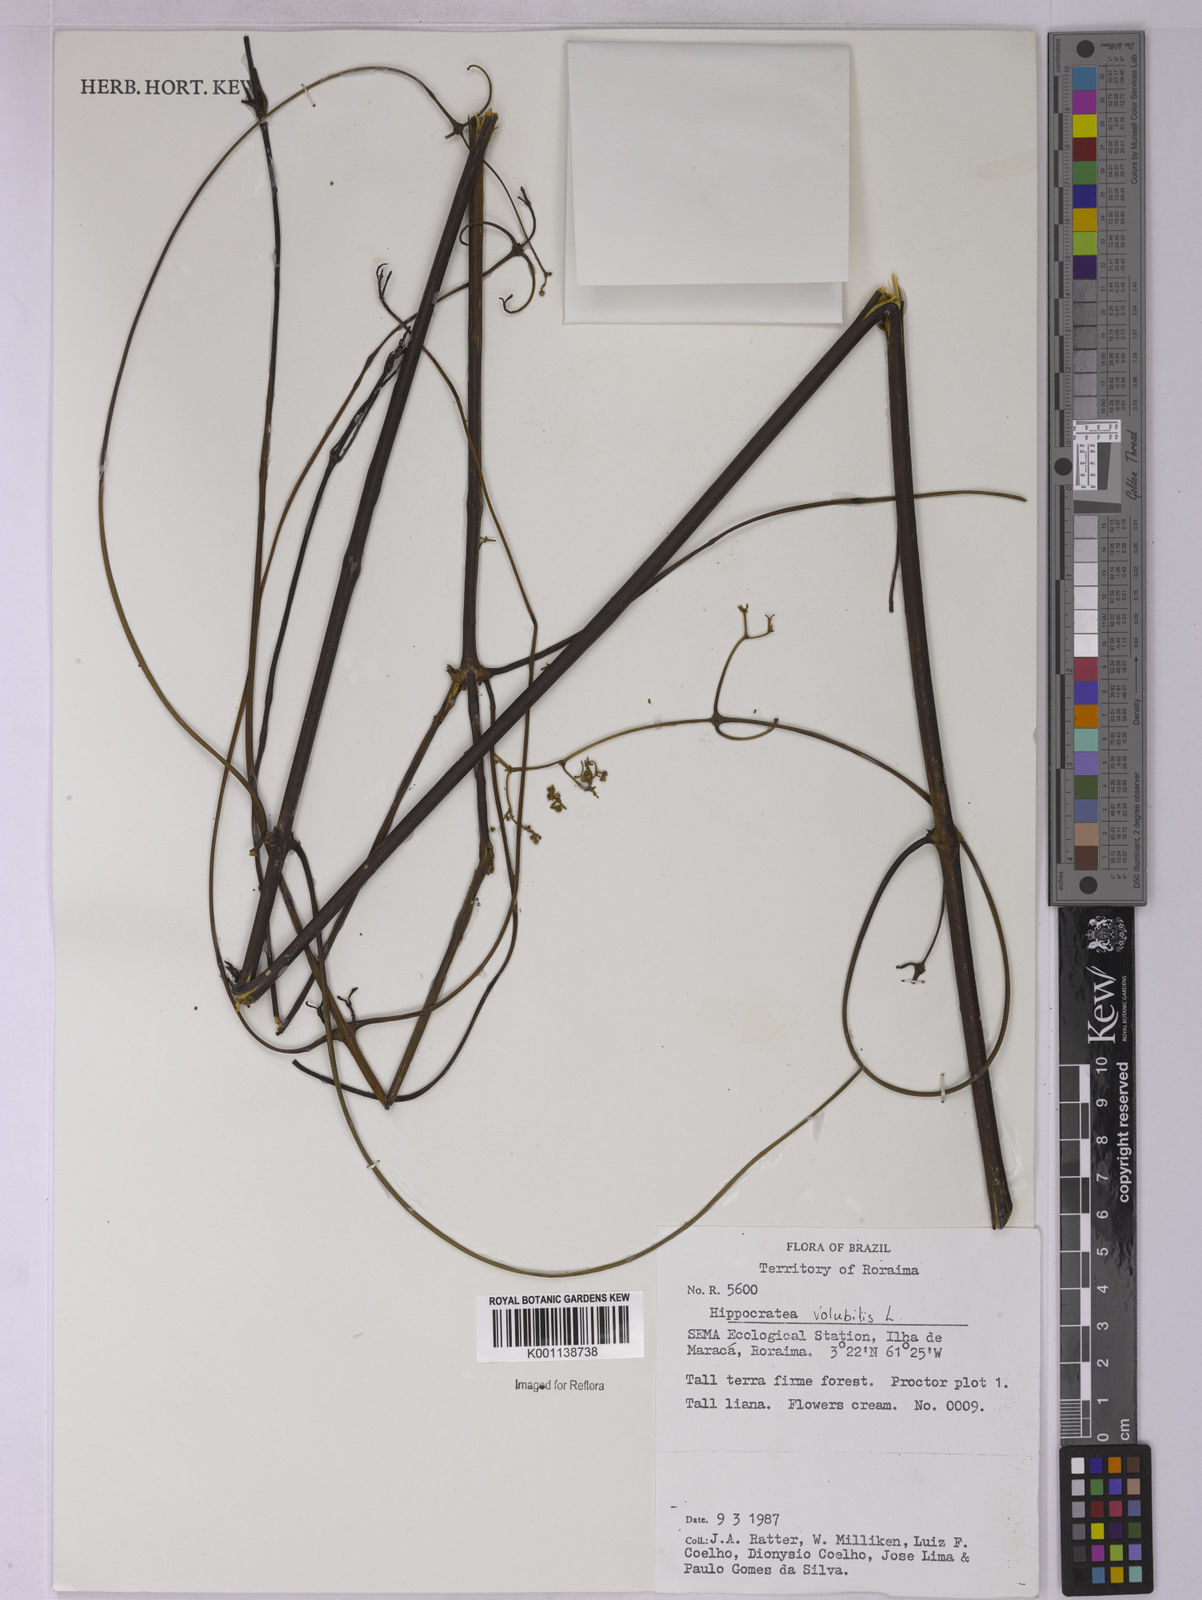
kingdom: Plantae
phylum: Tracheophyta
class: Magnoliopsida
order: Celastrales
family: Celastraceae
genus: Hippocratea
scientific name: Hippocratea volubilis
